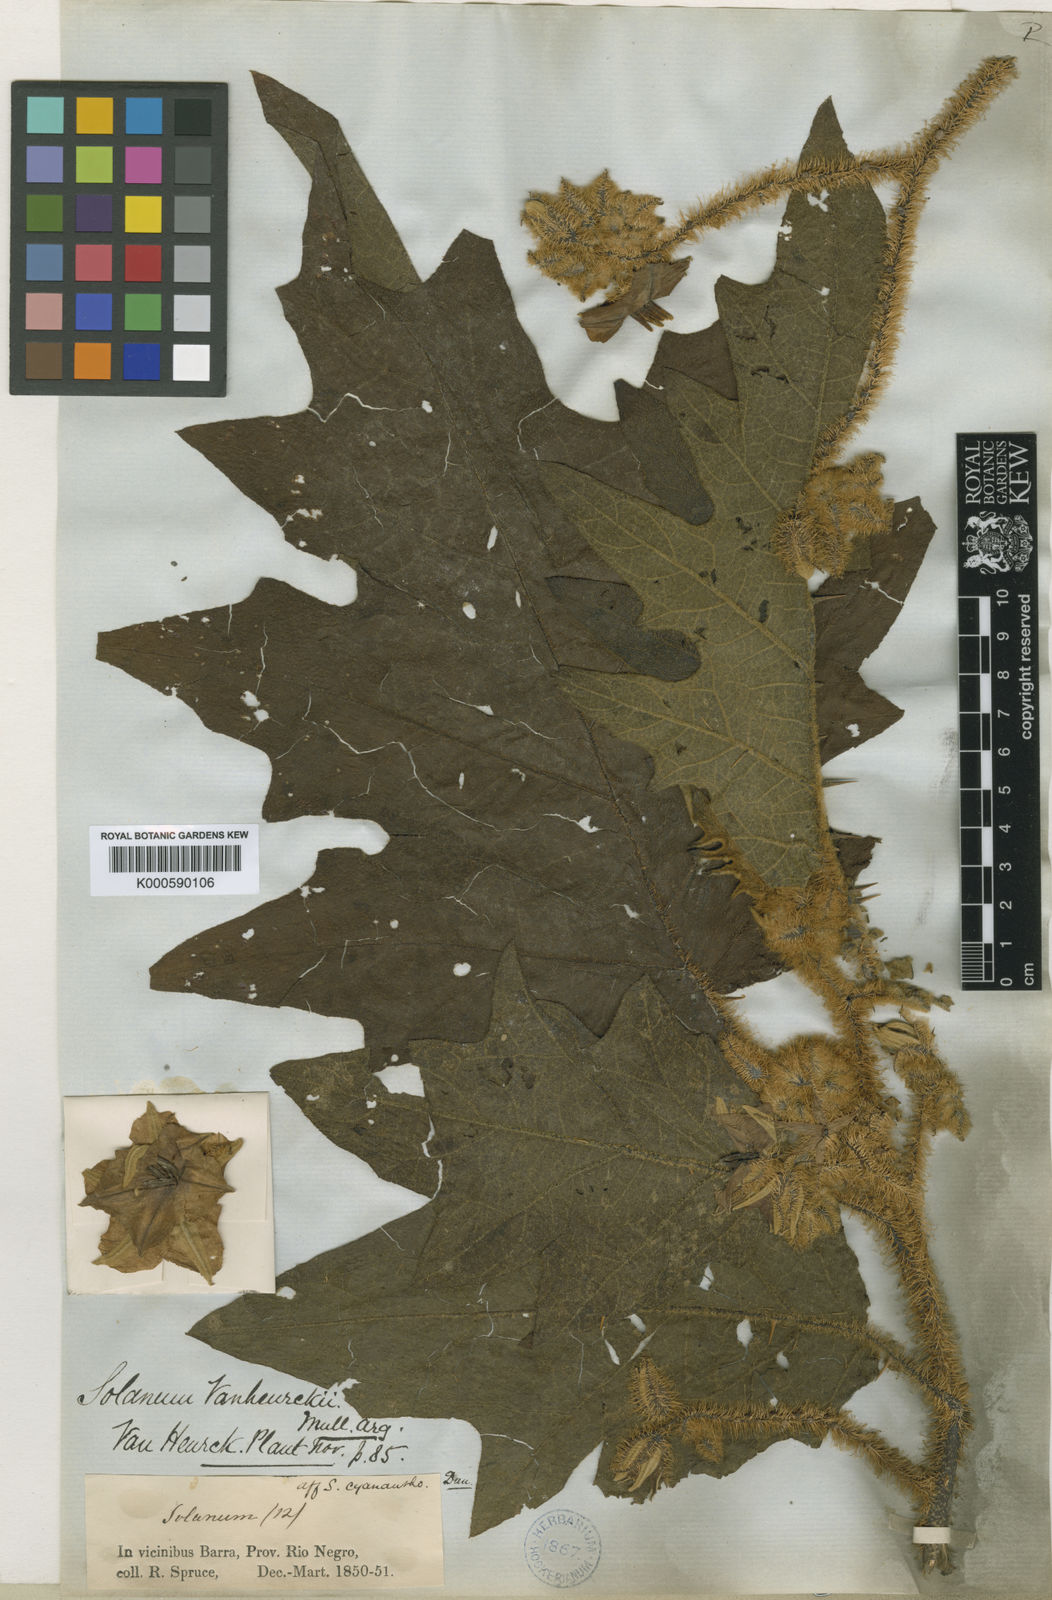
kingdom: Plantae
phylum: Tracheophyta
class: Magnoliopsida
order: Solanales
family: Solanaceae
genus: Solanum
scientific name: Solanum
